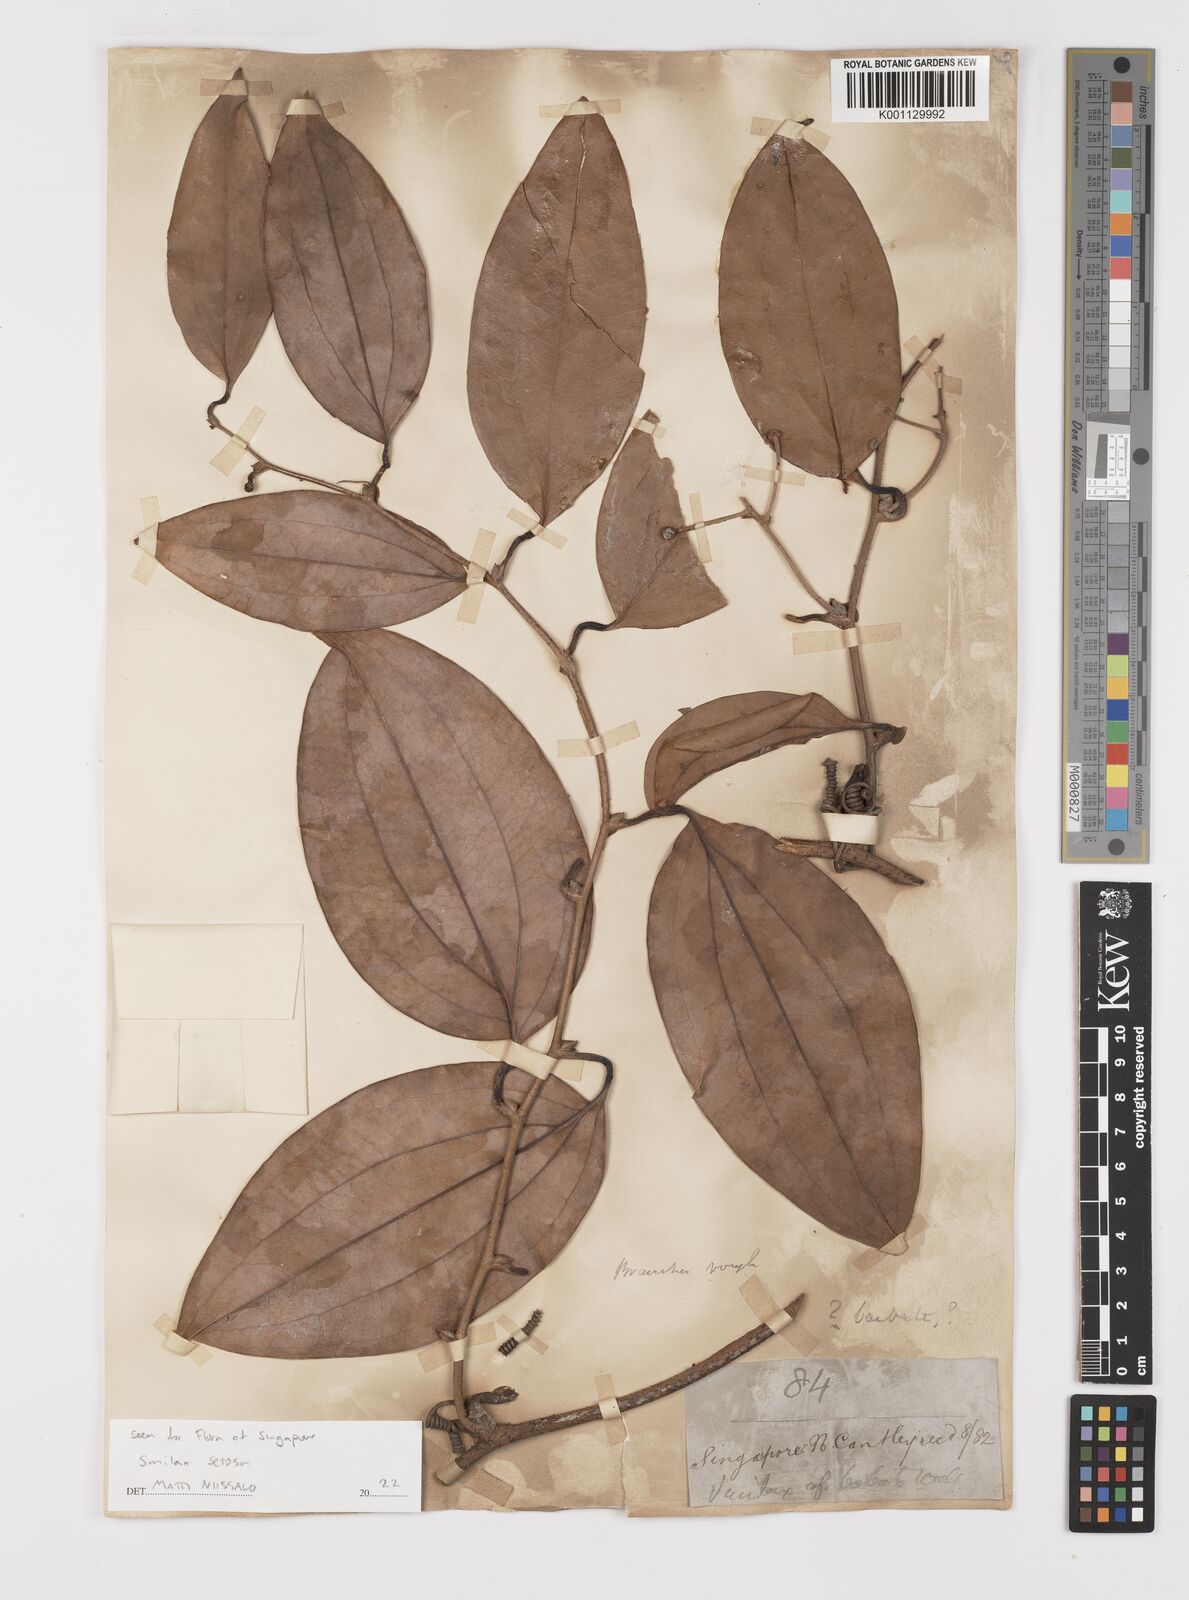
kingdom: Plantae
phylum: Tracheophyta
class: Liliopsida
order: Liliales
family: Smilacaceae
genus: Smilax
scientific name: Smilax setosa
